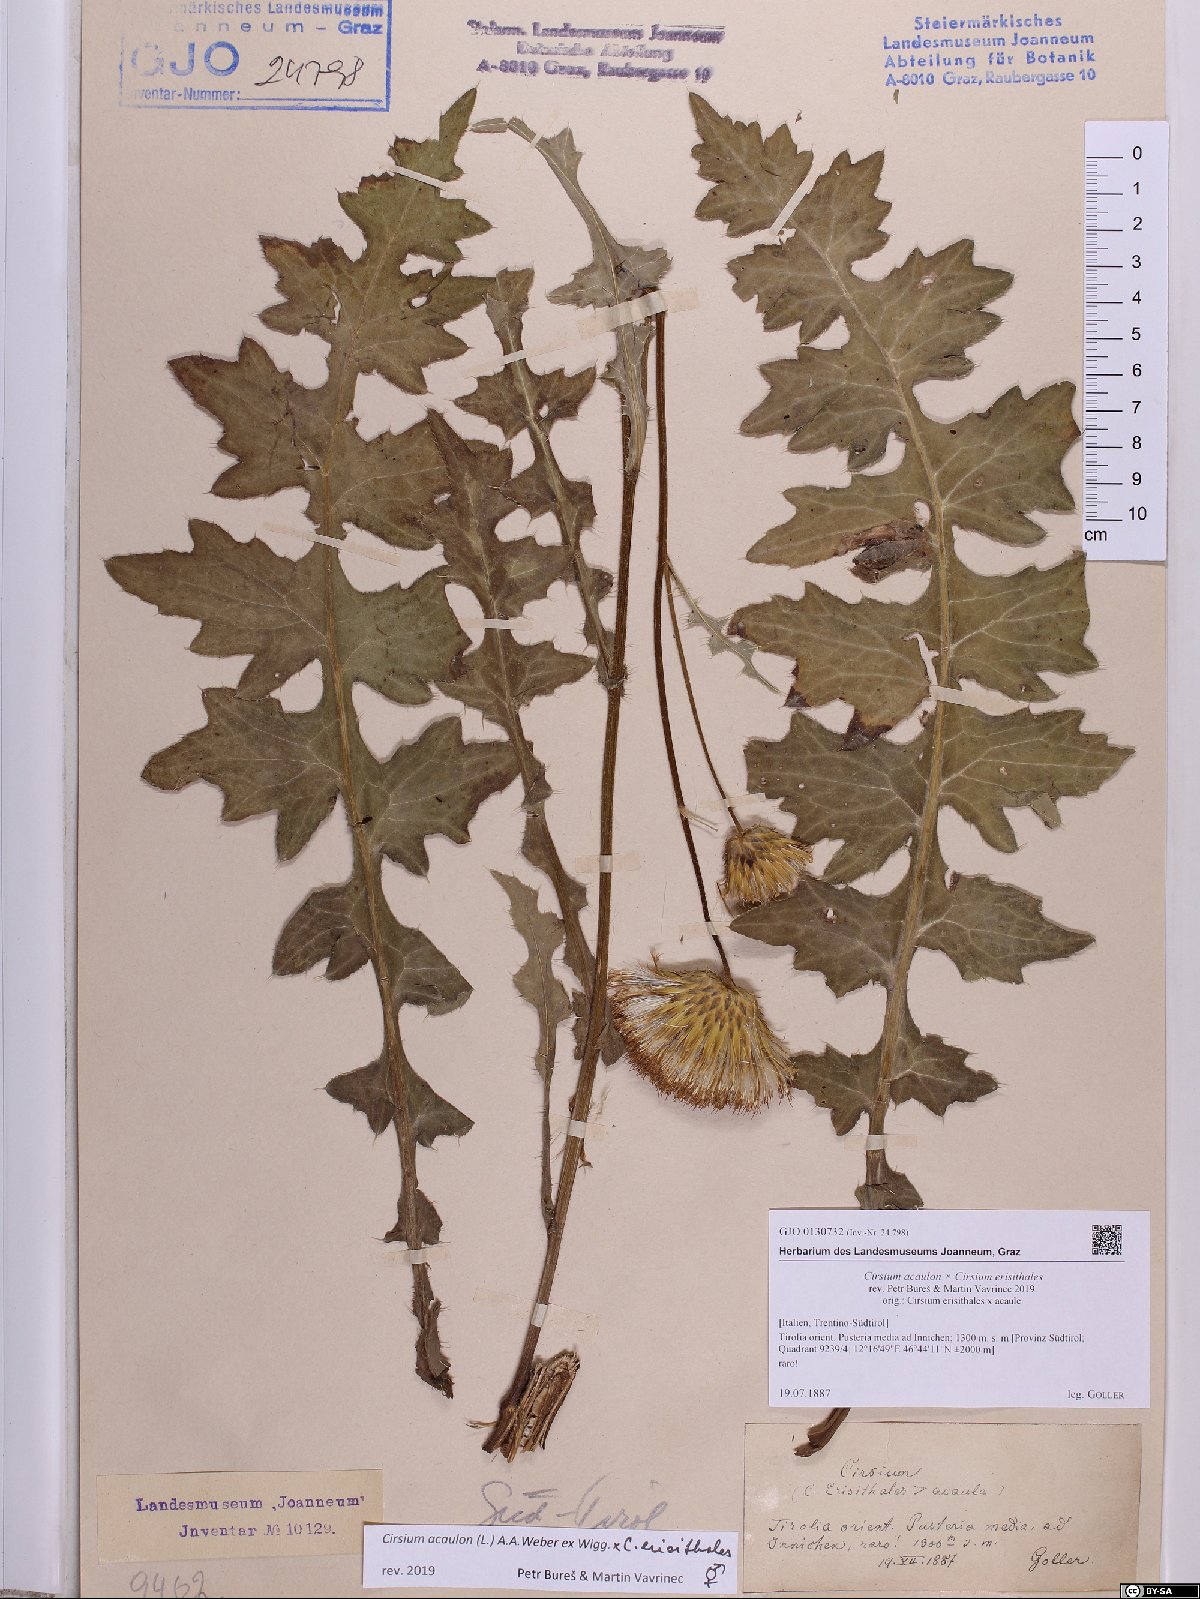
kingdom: Plantae
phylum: Tracheophyta
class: Magnoliopsida
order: Asterales
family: Asteraceae
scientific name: Asteraceae
